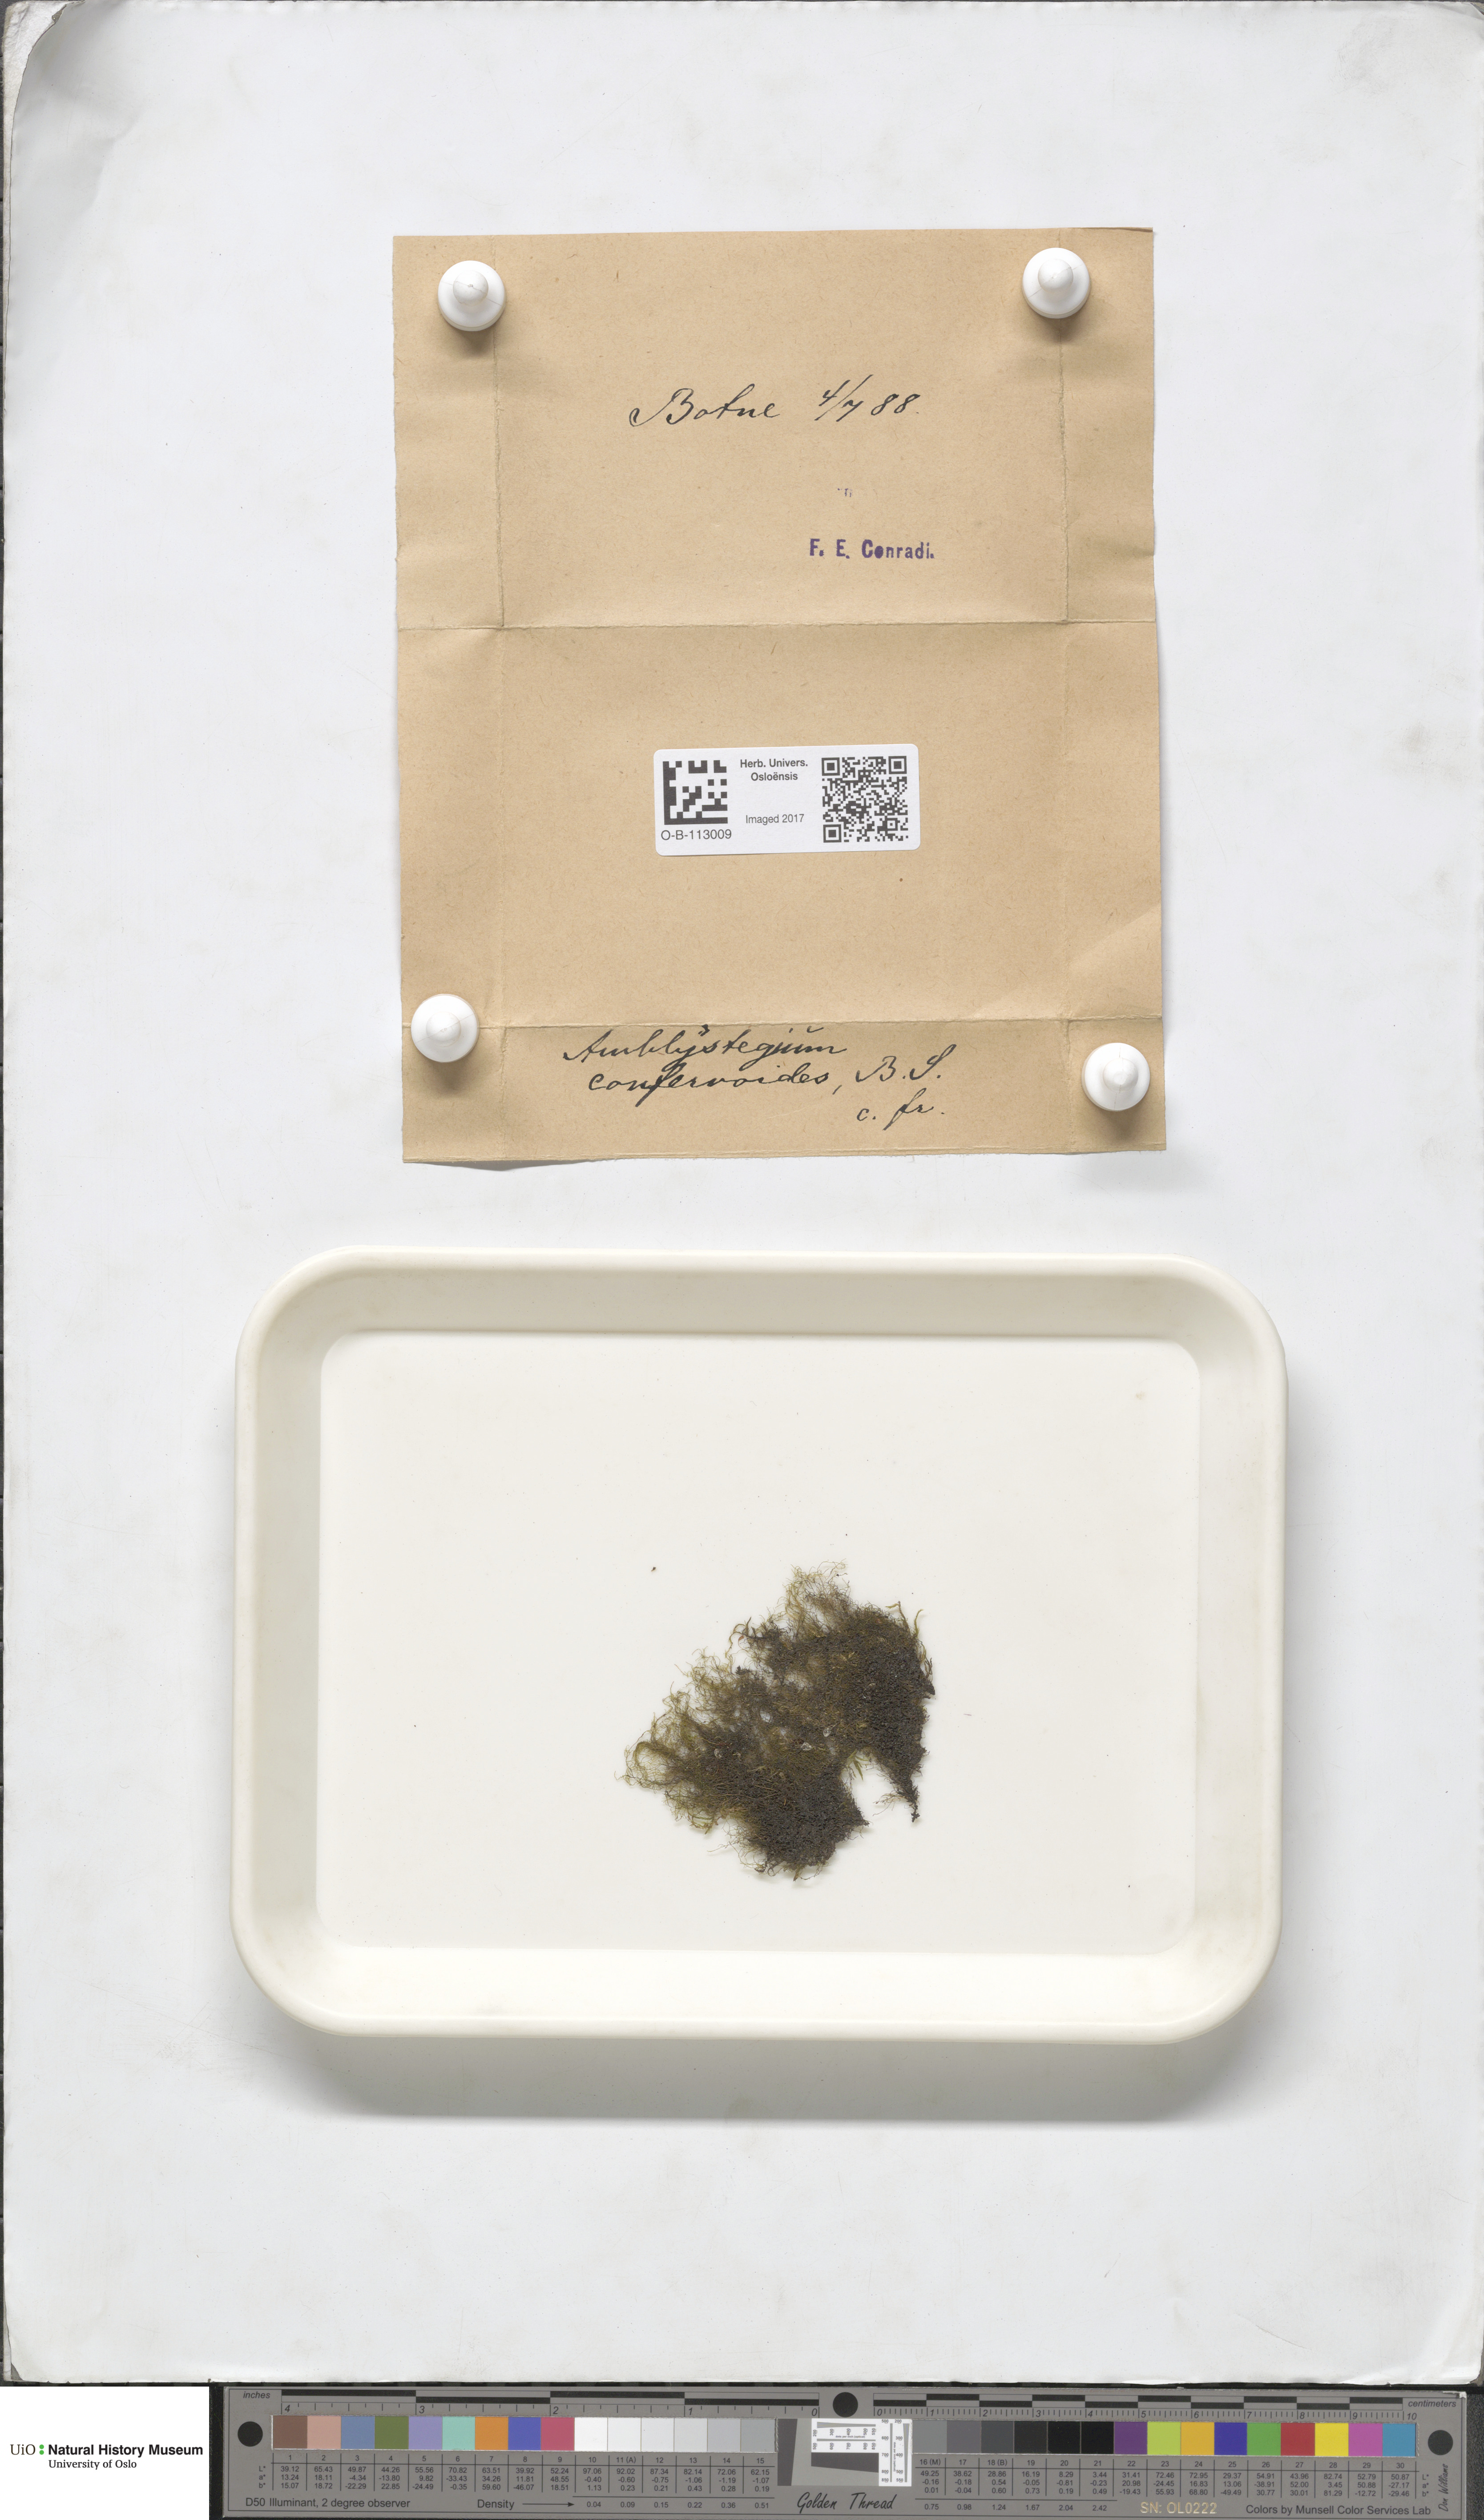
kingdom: Plantae
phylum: Bryophyta
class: Bryopsida
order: Hypnales
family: Amblystegiaceae
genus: Serpoleskea
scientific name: Serpoleskea confervoides
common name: Alga-like matted-moss
